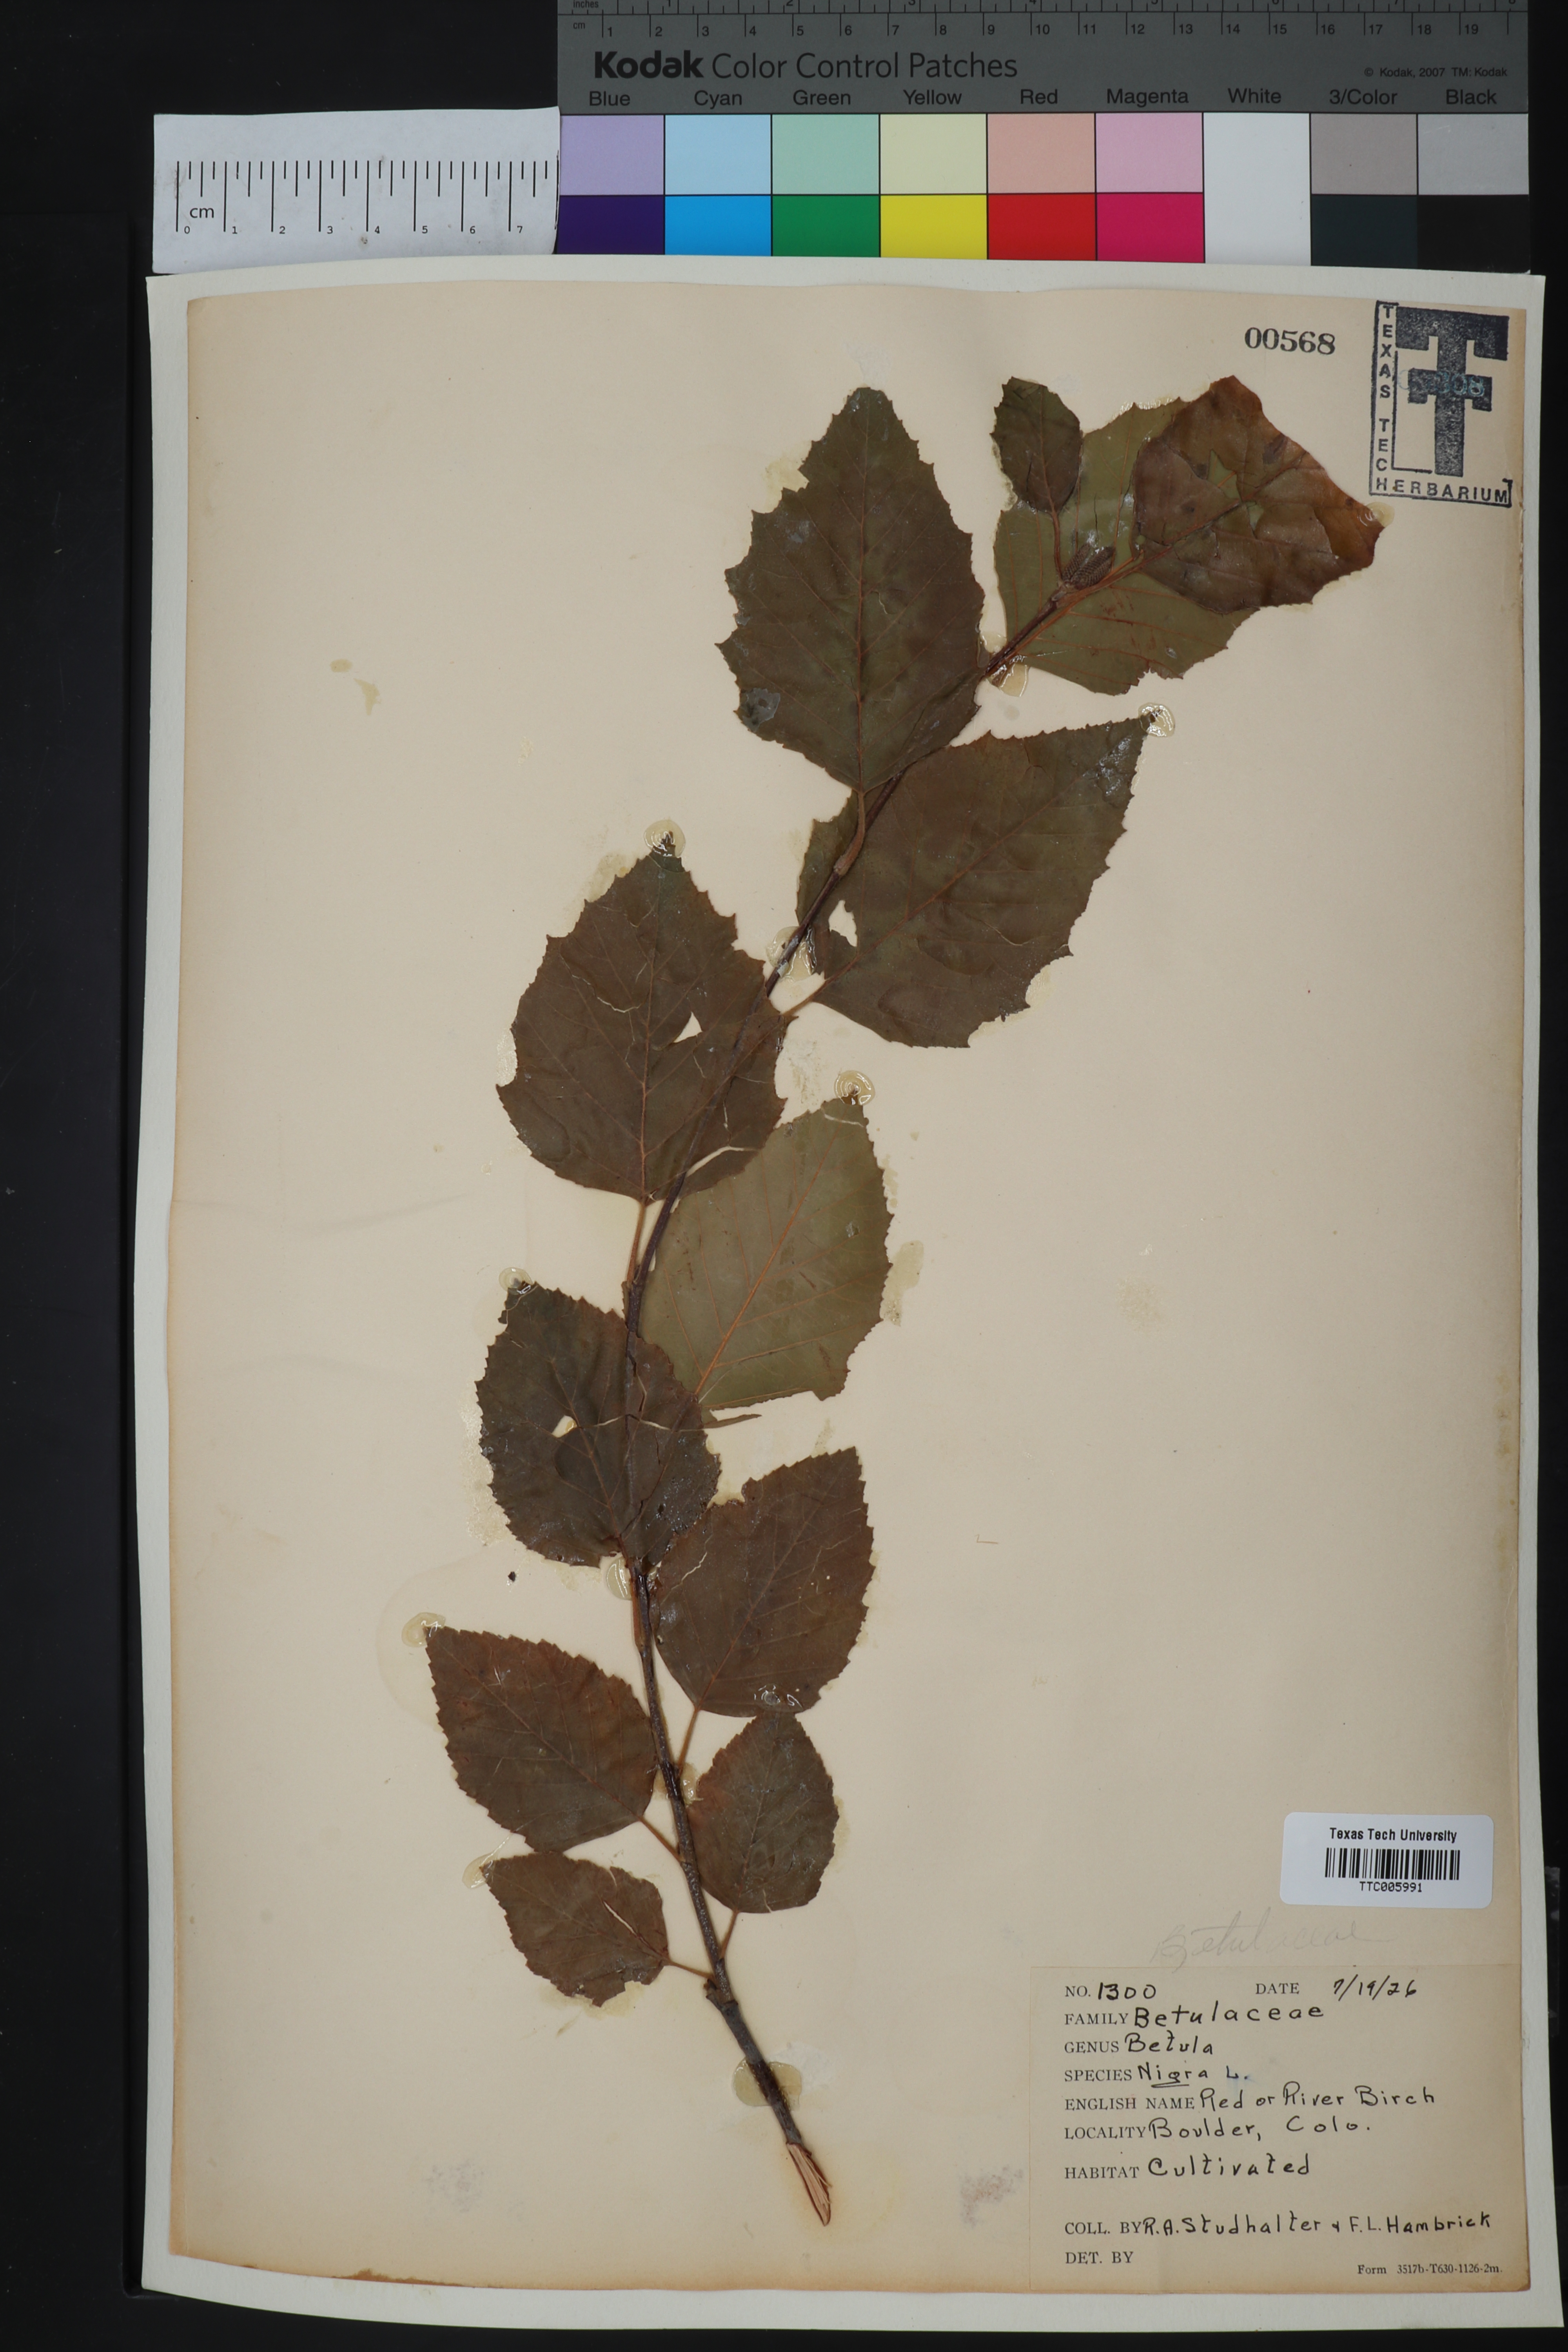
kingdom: Plantae
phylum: Tracheophyta
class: Magnoliopsida
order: Fagales
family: Betulaceae
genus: Betula
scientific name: Betula nigra
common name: Black birch
